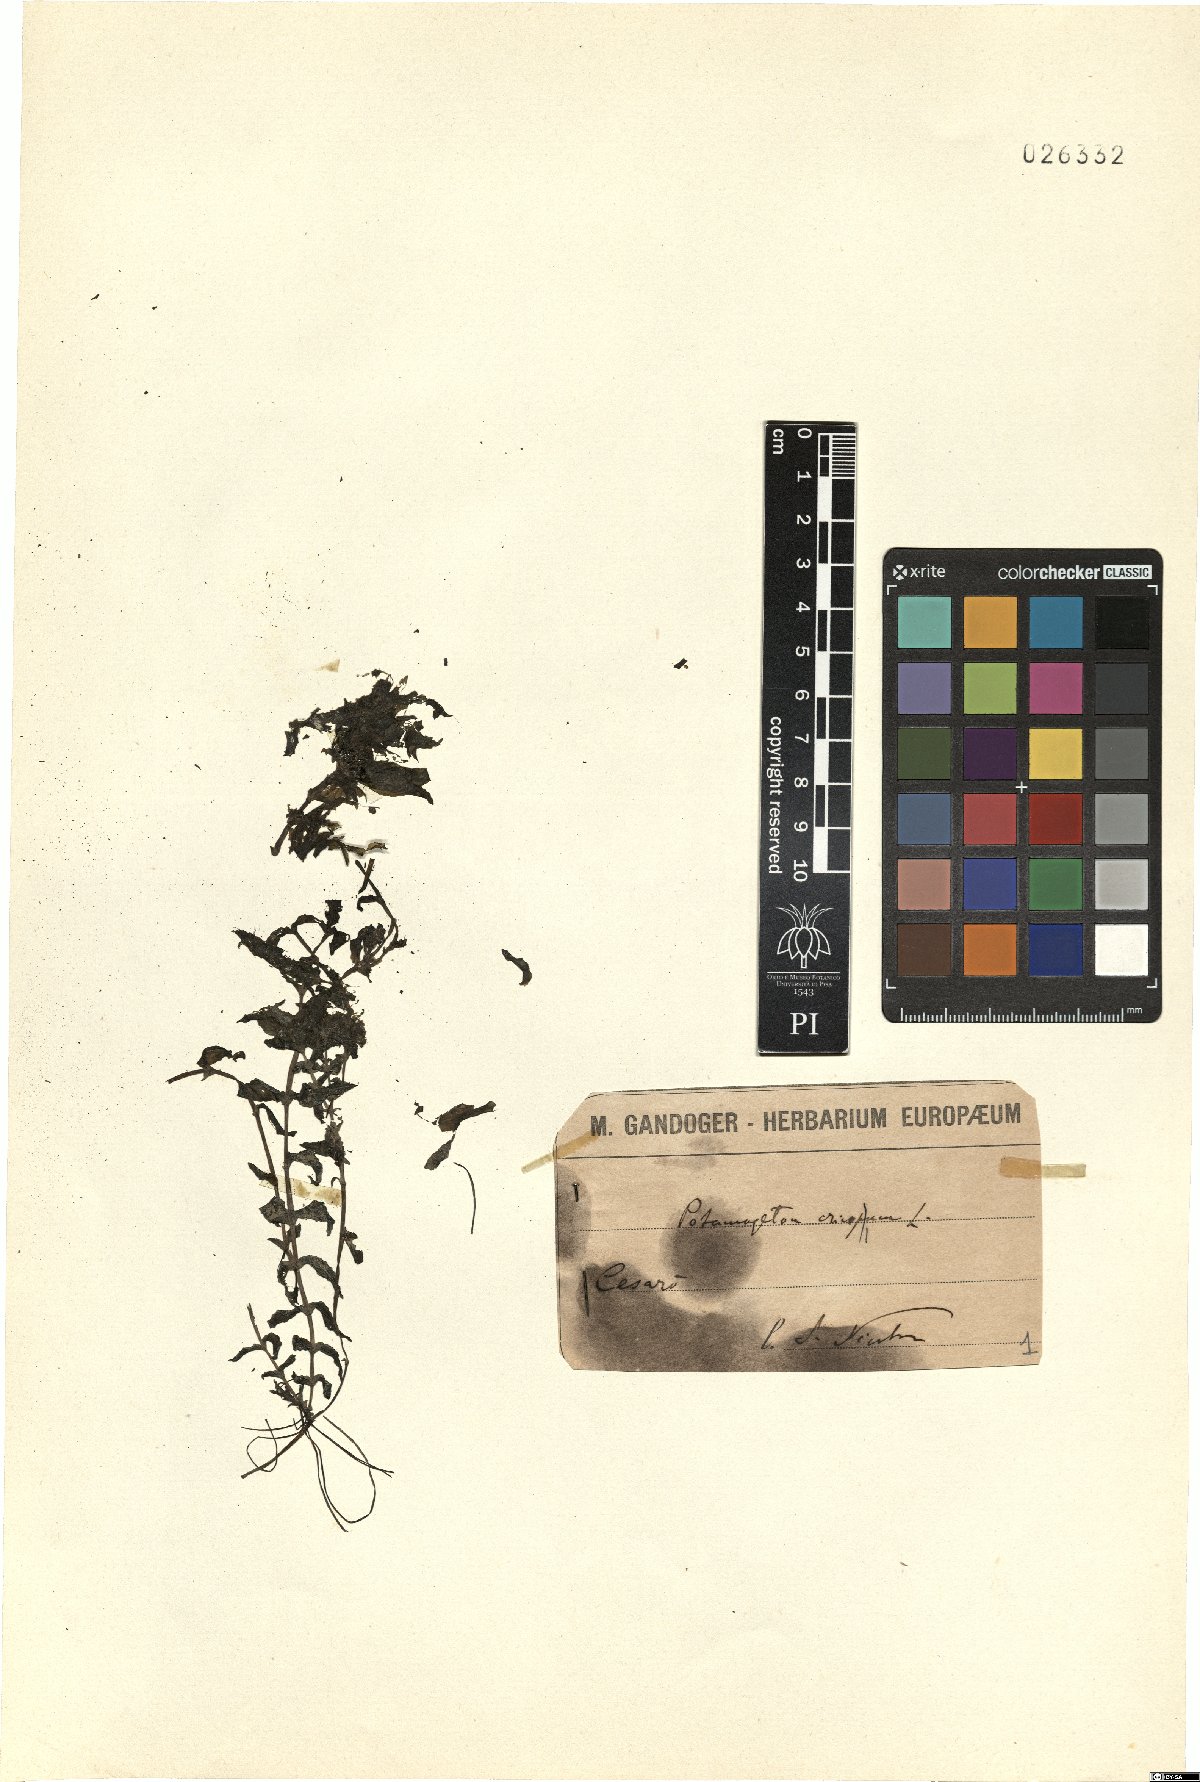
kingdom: Plantae
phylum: Tracheophyta
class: Liliopsida
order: Alismatales
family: Potamogetonaceae
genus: Potamogeton
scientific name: Potamogeton crispus
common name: Curled pondweed
